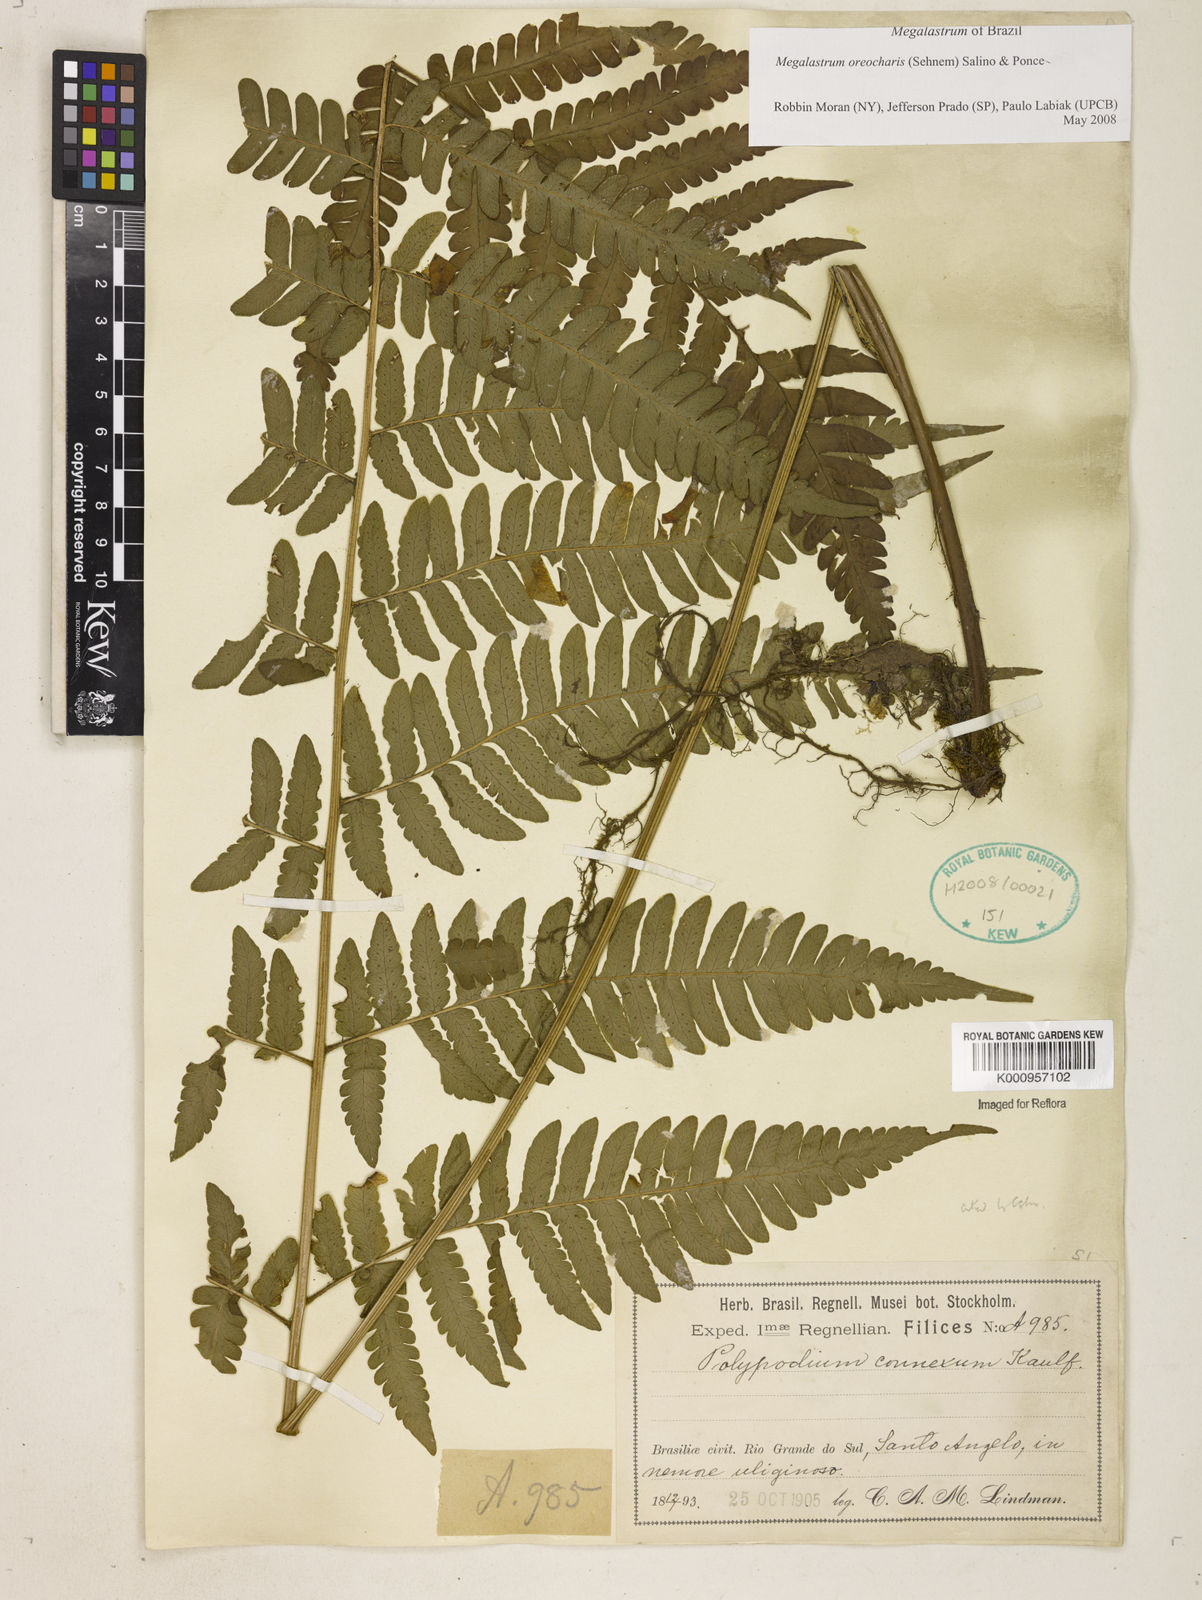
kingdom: Plantae
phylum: Tracheophyta
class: Polypodiopsida
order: Polypodiales
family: Dryopteridaceae
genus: Megalastrum
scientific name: Megalastrum oreocharis
